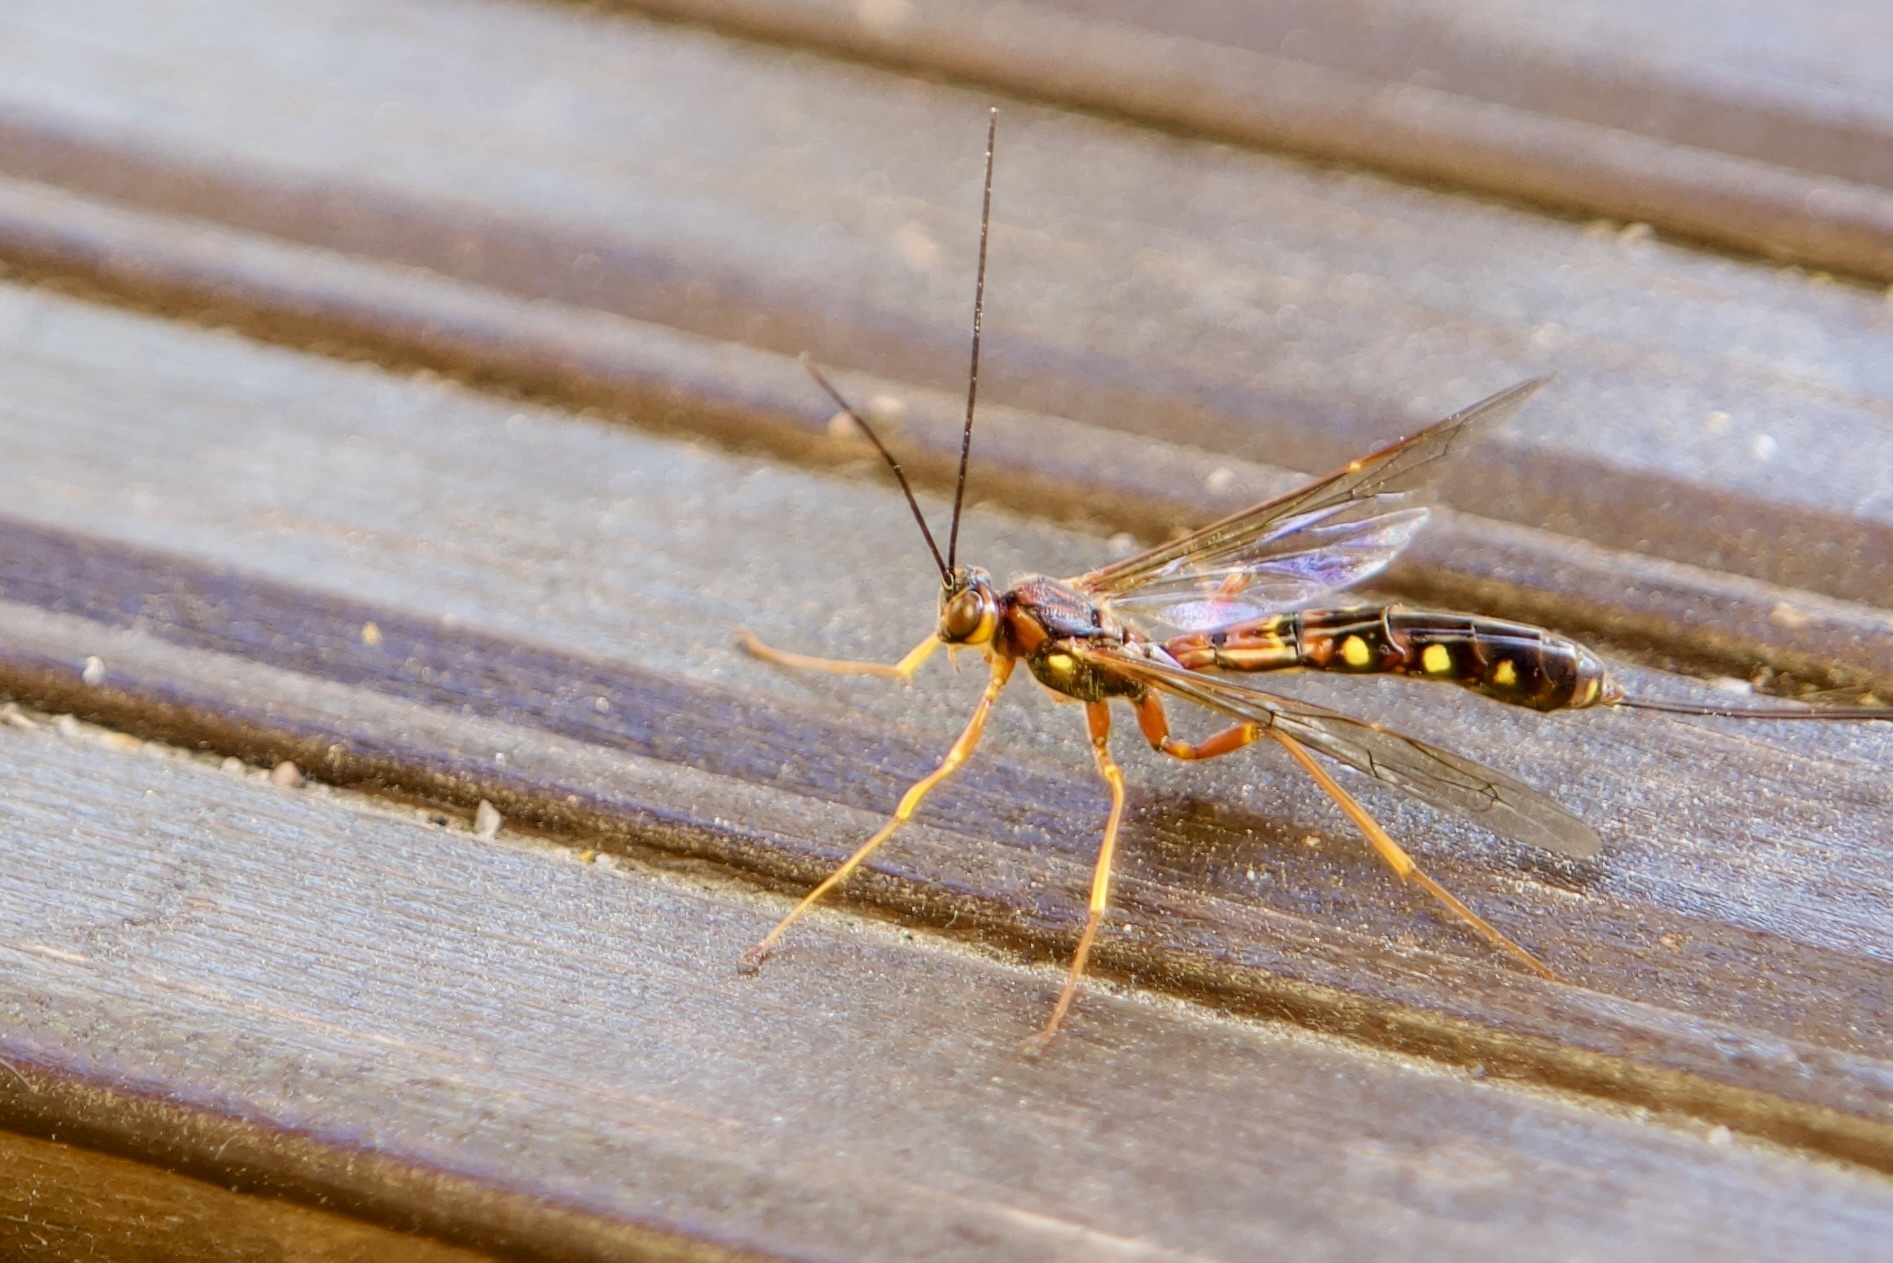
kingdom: Animalia
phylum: Arthropoda
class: Insecta
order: Hymenoptera
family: Ichneumonidae
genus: Megarhyssa
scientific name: Megarhyssa vagatoria
